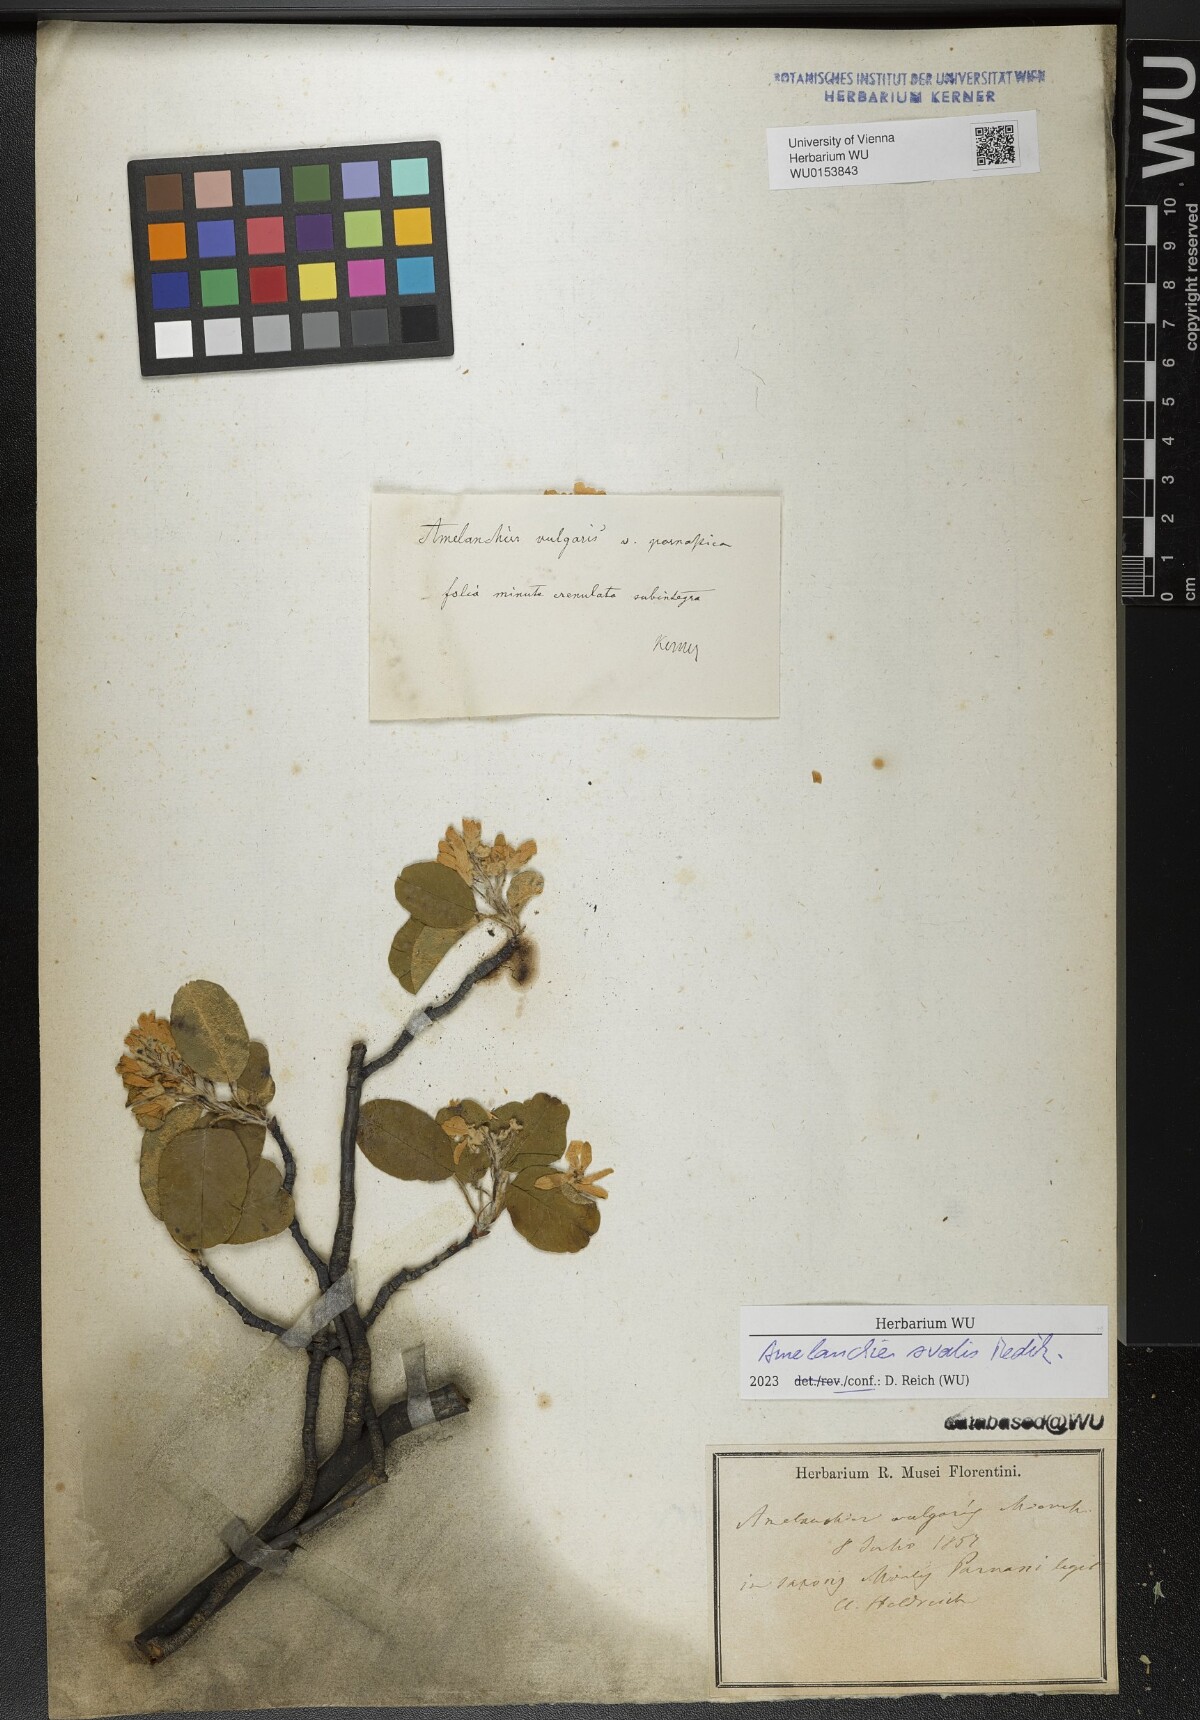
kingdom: Plantae
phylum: Tracheophyta
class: Magnoliopsida
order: Rosales
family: Rosaceae
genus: Amelanchier
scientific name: Amelanchier ovalis
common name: Serviceberry
